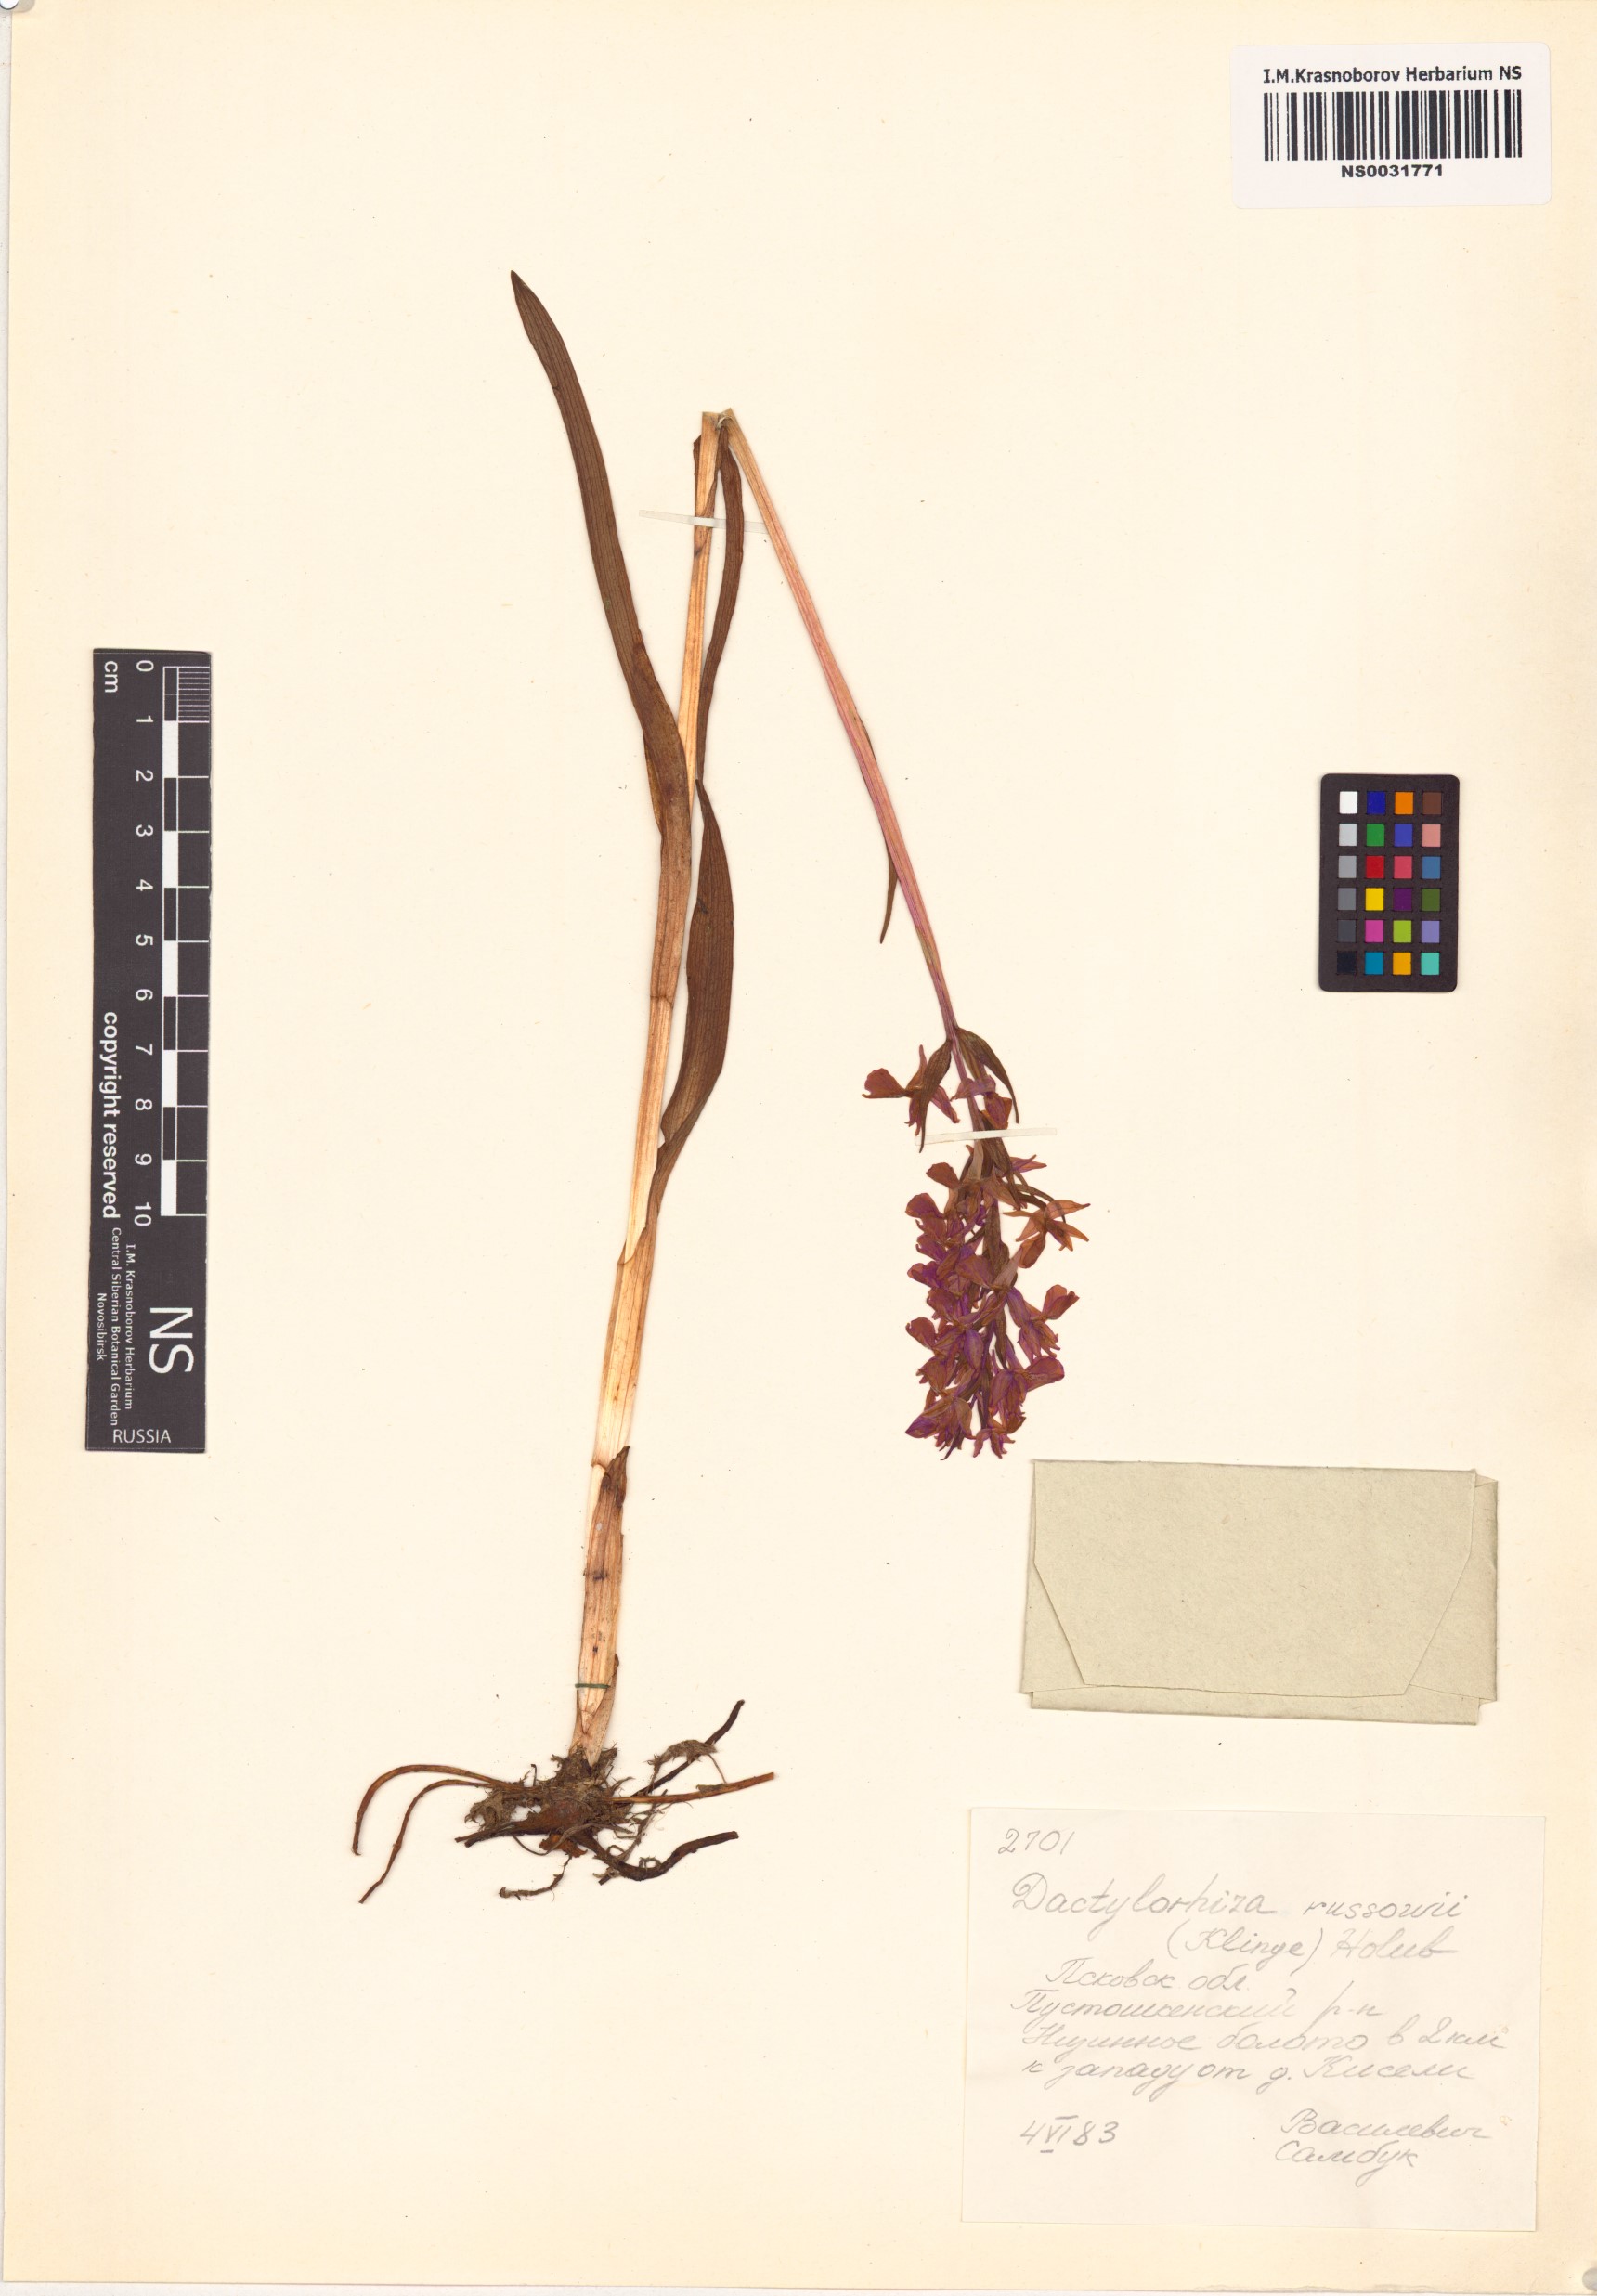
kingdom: Plantae
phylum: Tracheophyta
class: Liliopsida
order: Asparagales
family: Orchidaceae
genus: Dactylorhiza
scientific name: Dactylorhiza russowii
